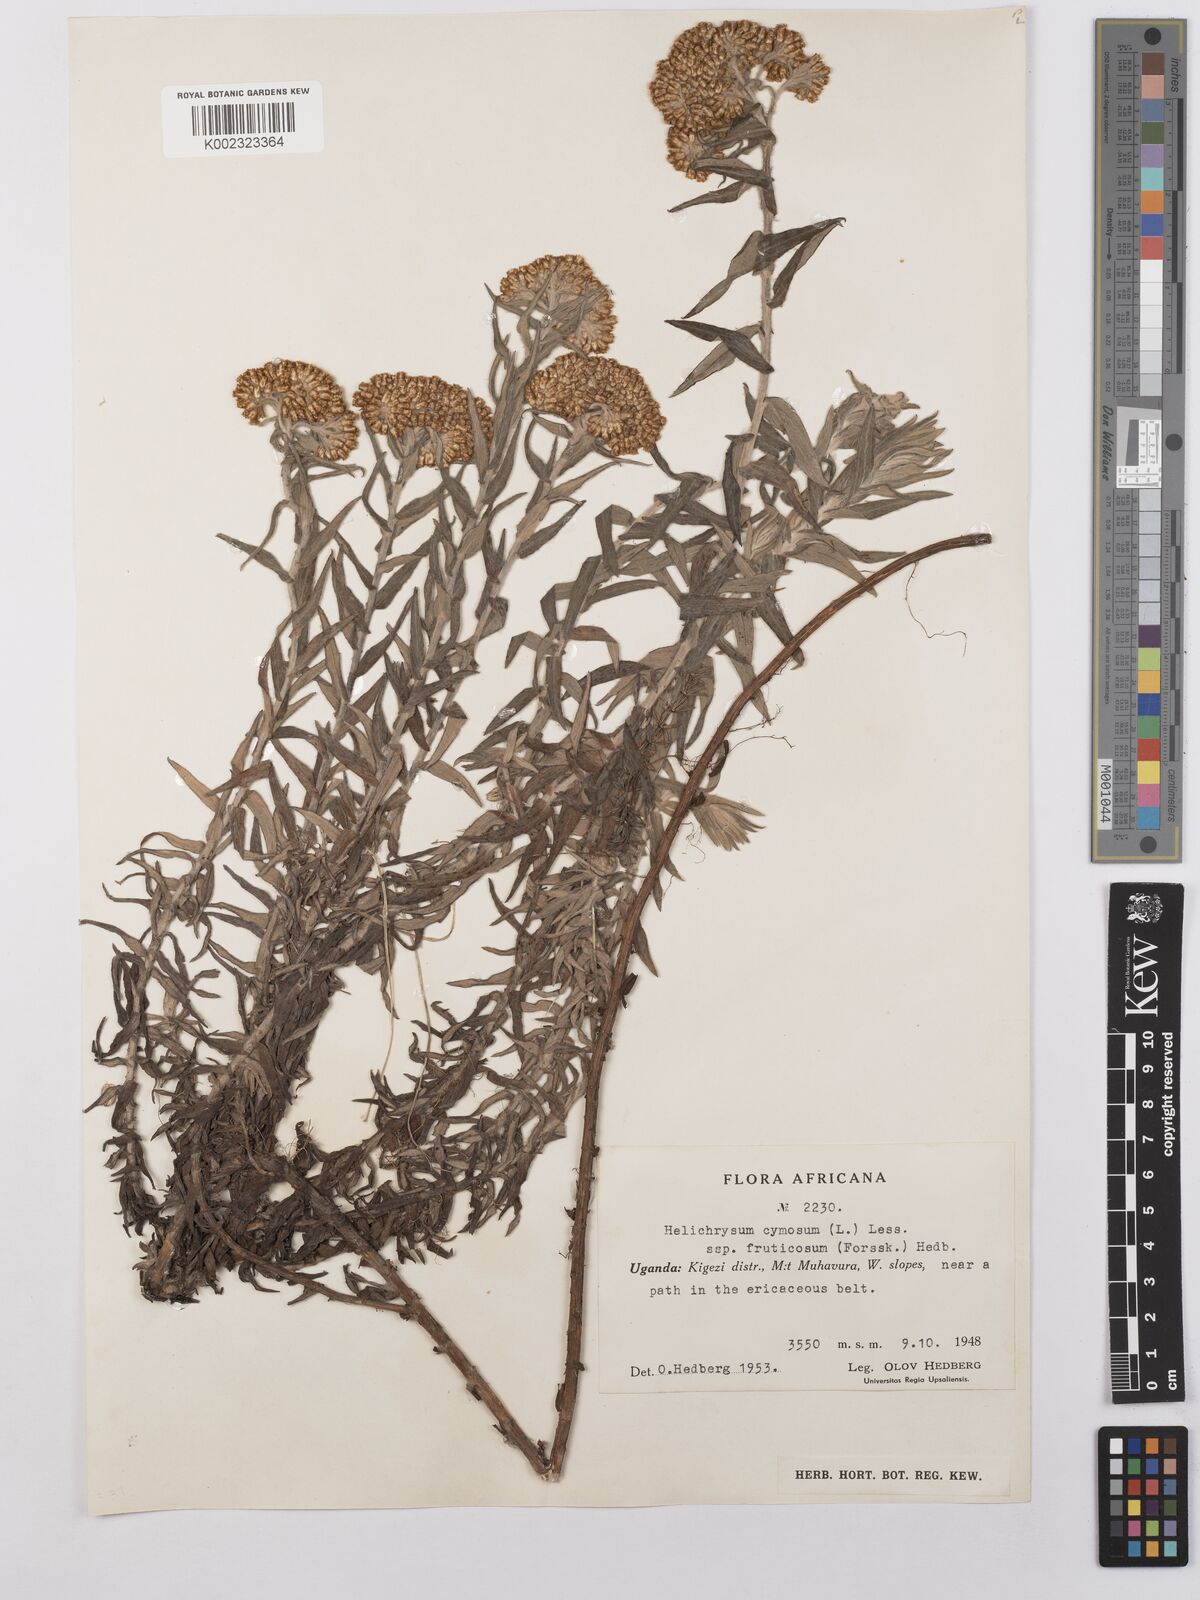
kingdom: Plantae
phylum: Tracheophyta
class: Magnoliopsida
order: Asterales
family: Asteraceae
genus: Helichrysum
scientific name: Helichrysum forskahlii
